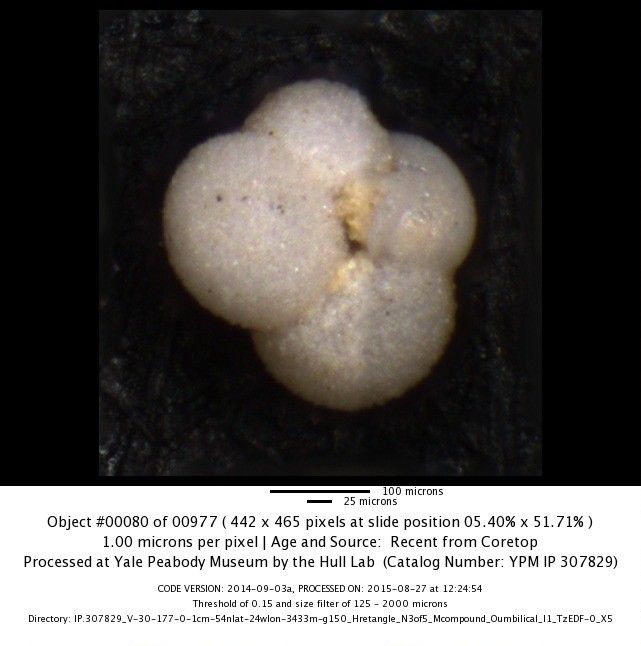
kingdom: Chromista
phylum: Foraminifera
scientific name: Foraminifera
